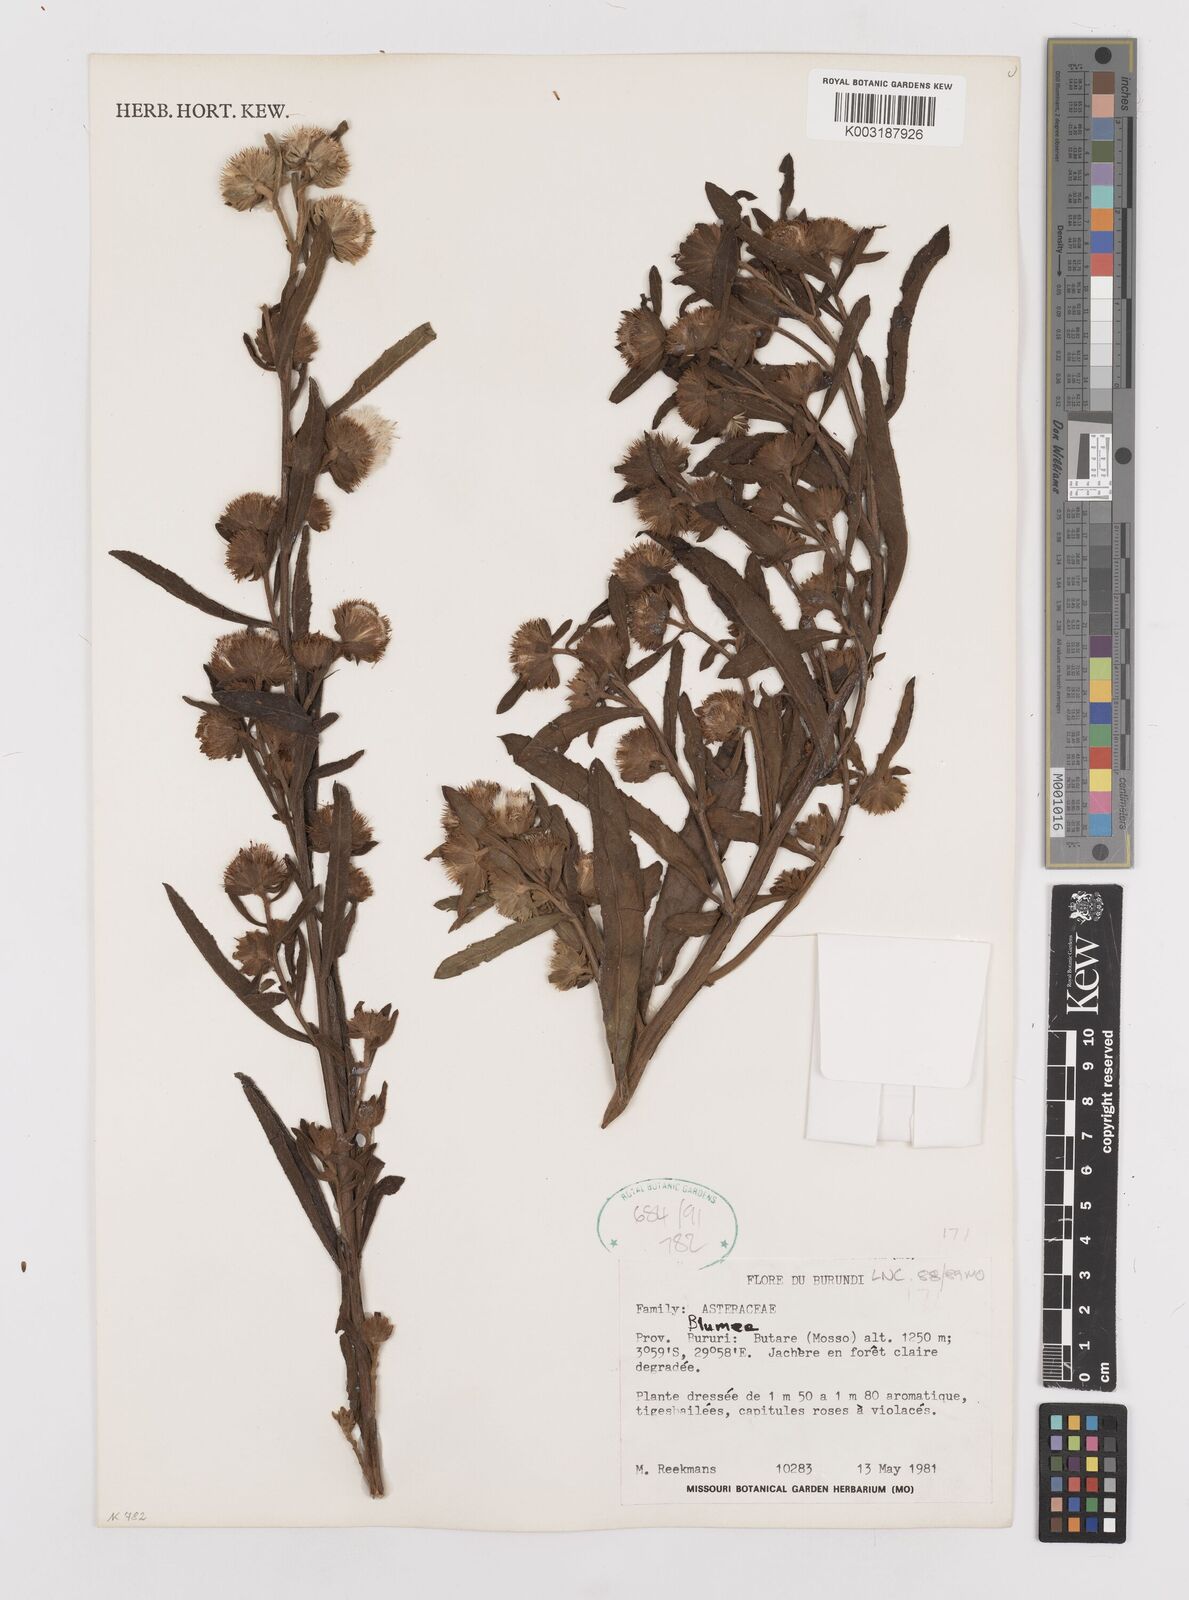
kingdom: Plantae
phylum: Tracheophyta
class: Magnoliopsida
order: Asterales
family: Asteraceae
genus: Laggera
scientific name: Laggera
